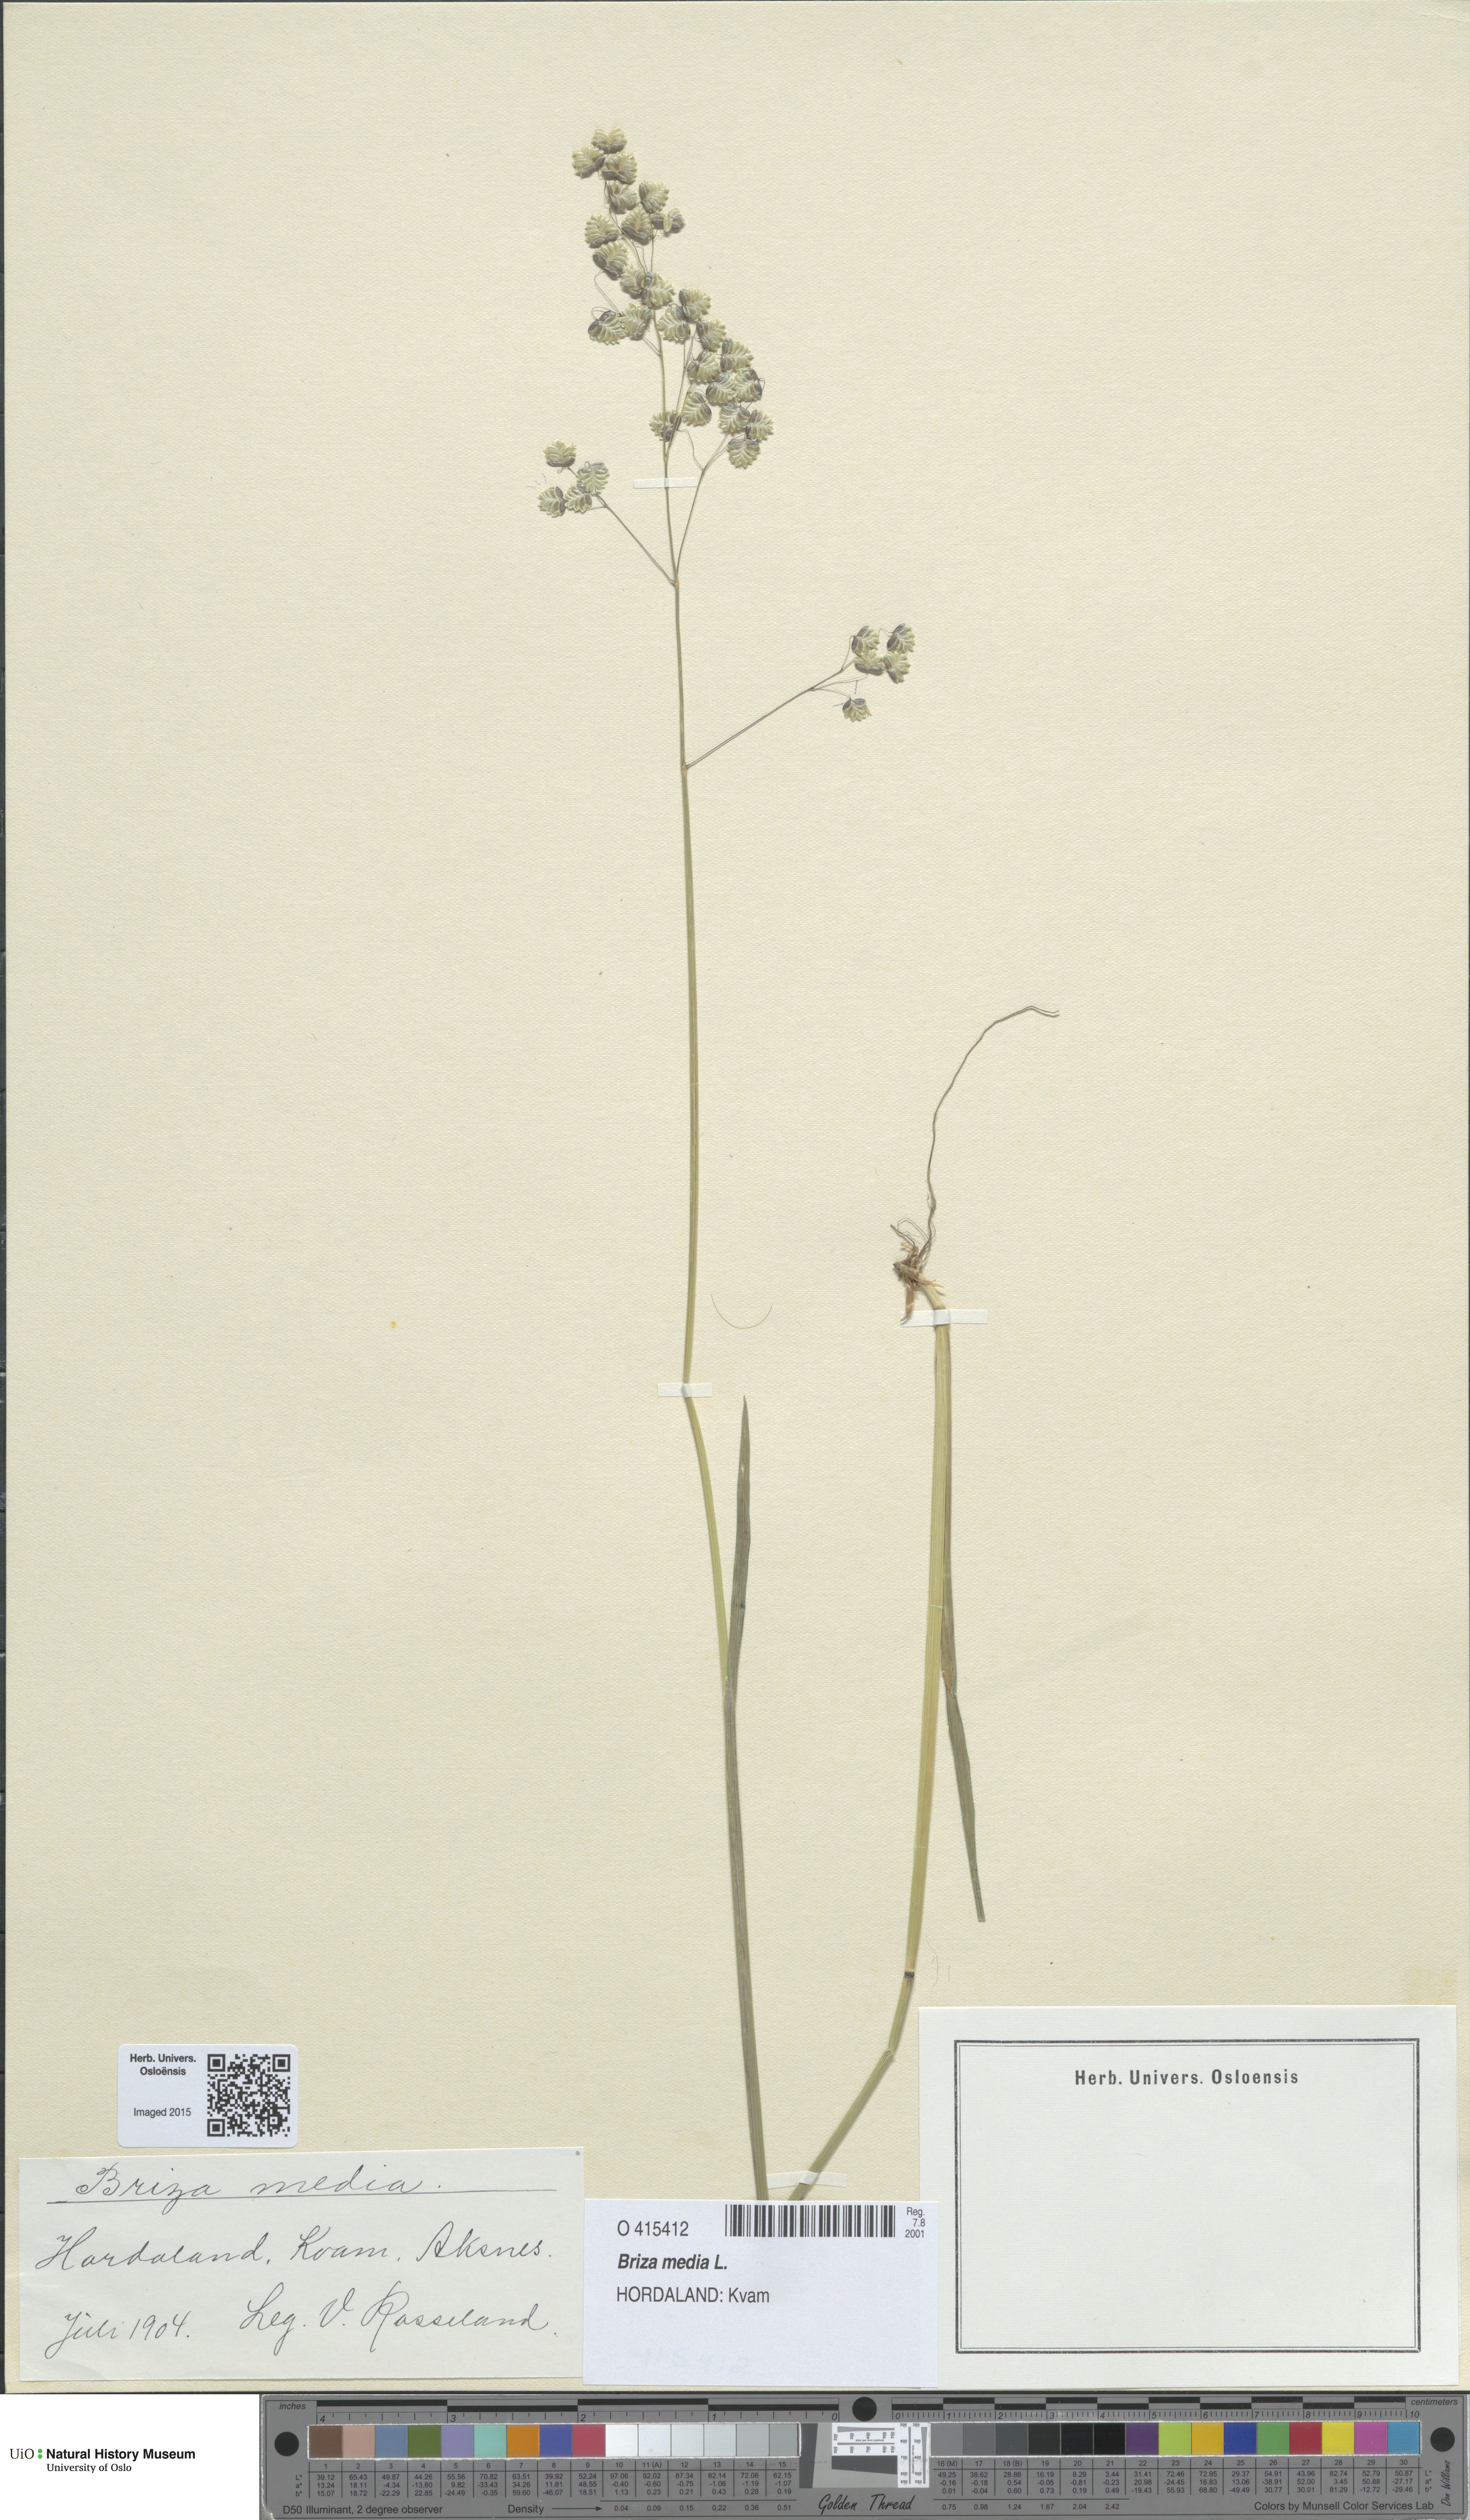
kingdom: Plantae
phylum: Tracheophyta
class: Liliopsida
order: Poales
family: Poaceae
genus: Briza
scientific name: Briza media
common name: Quaking grass
